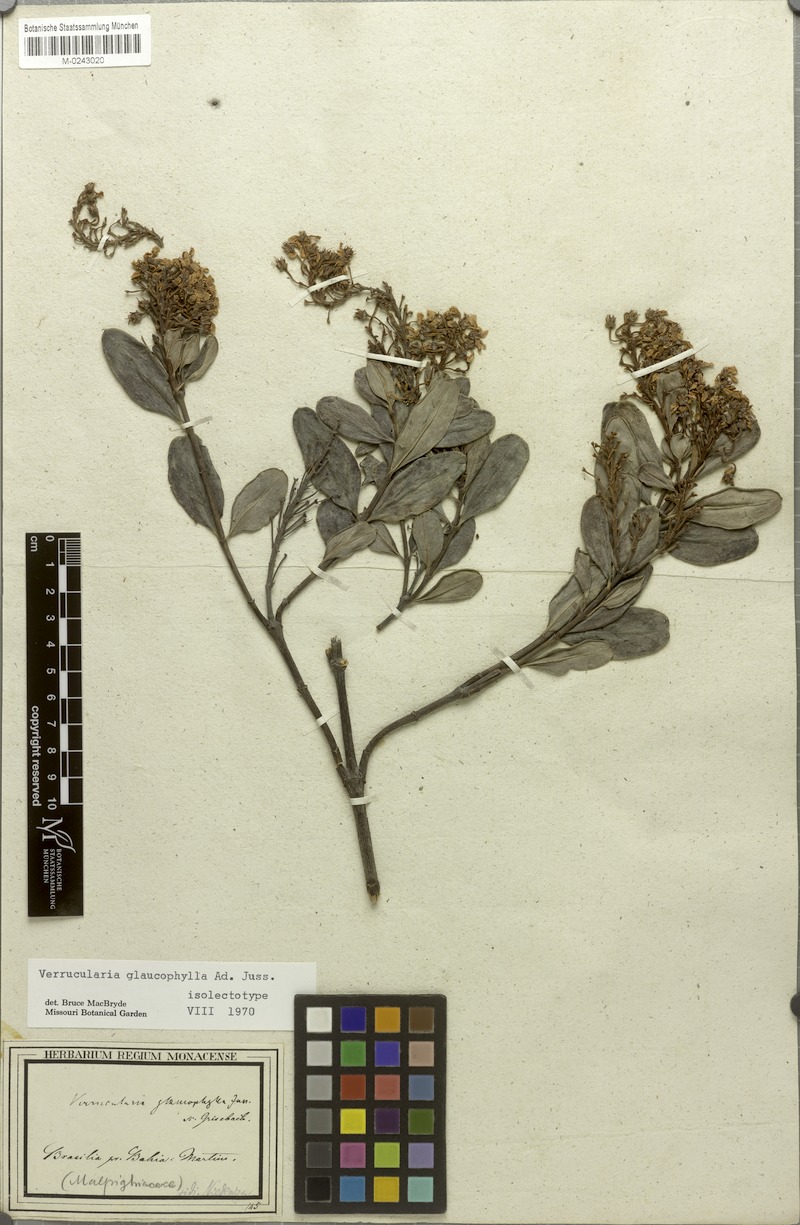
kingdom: Plantae
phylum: Tracheophyta
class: Magnoliopsida
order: Malpighiales
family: Malpighiaceae
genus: Verrucularina
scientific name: Verrucularina glaucophylla
